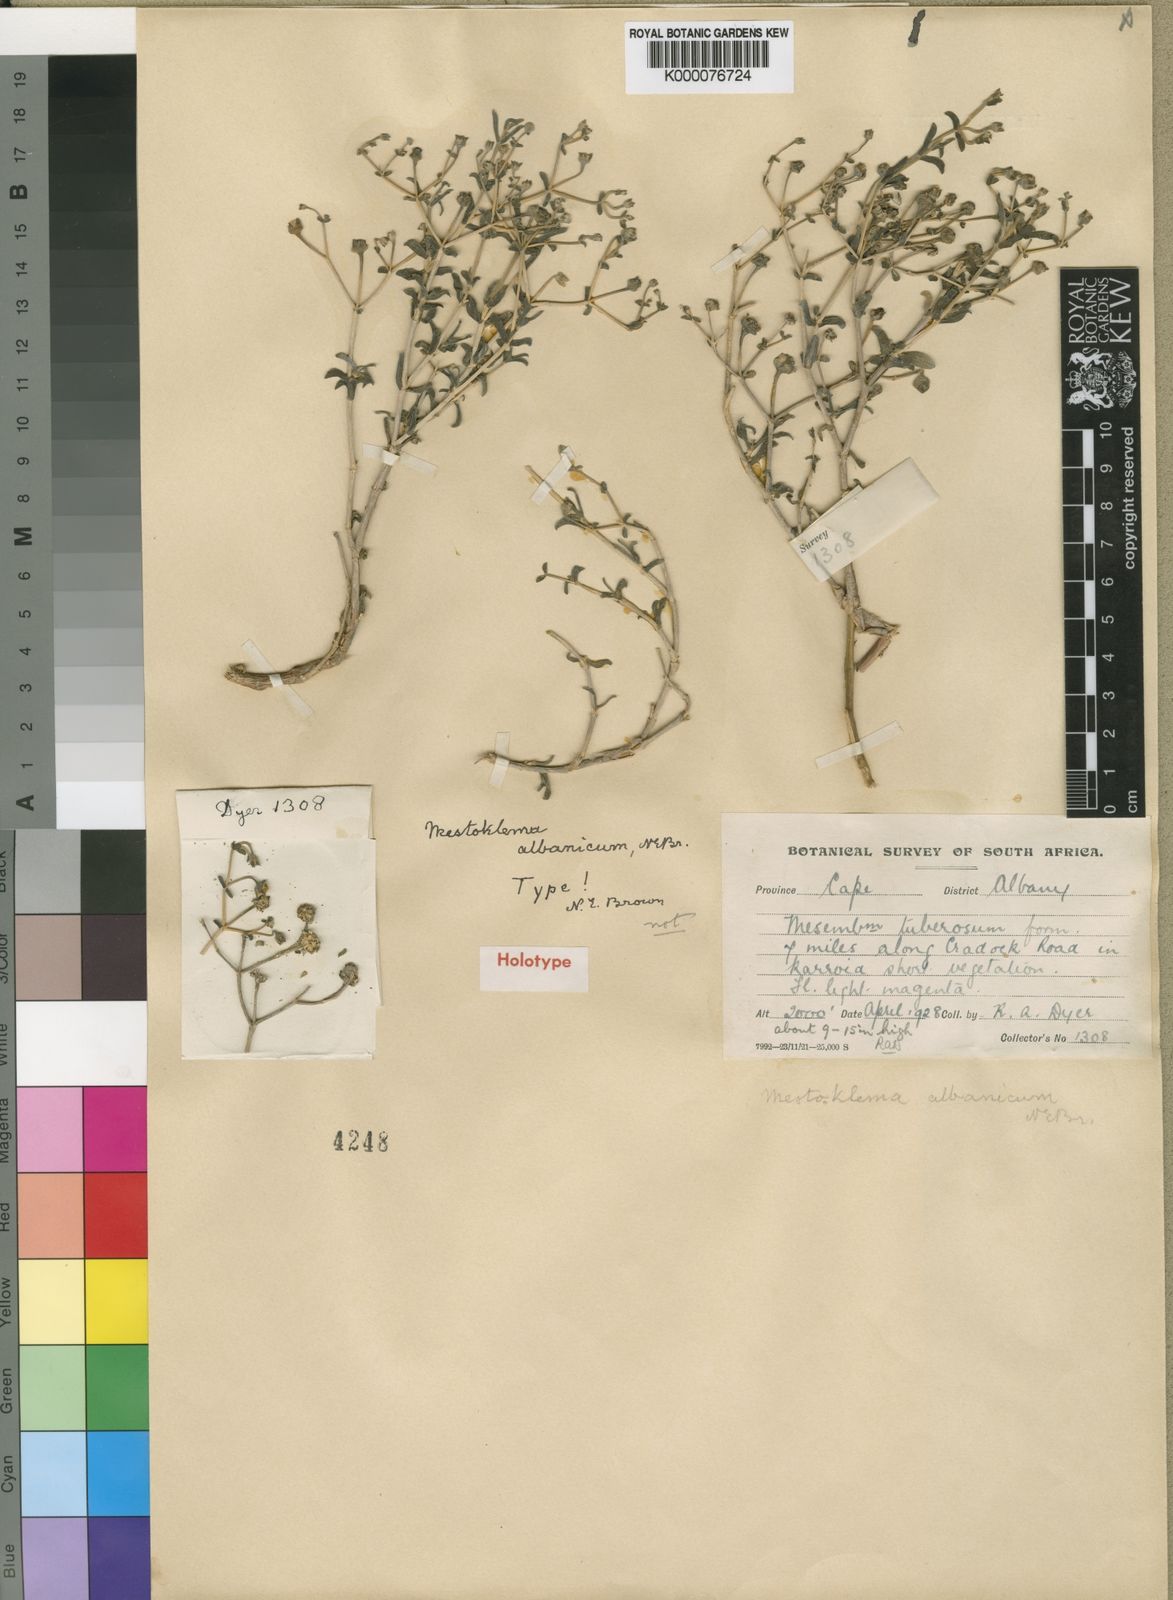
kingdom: Plantae
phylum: Tracheophyta
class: Magnoliopsida
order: Caryophyllales
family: Aizoaceae
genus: Mestoklema
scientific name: Mestoklema
